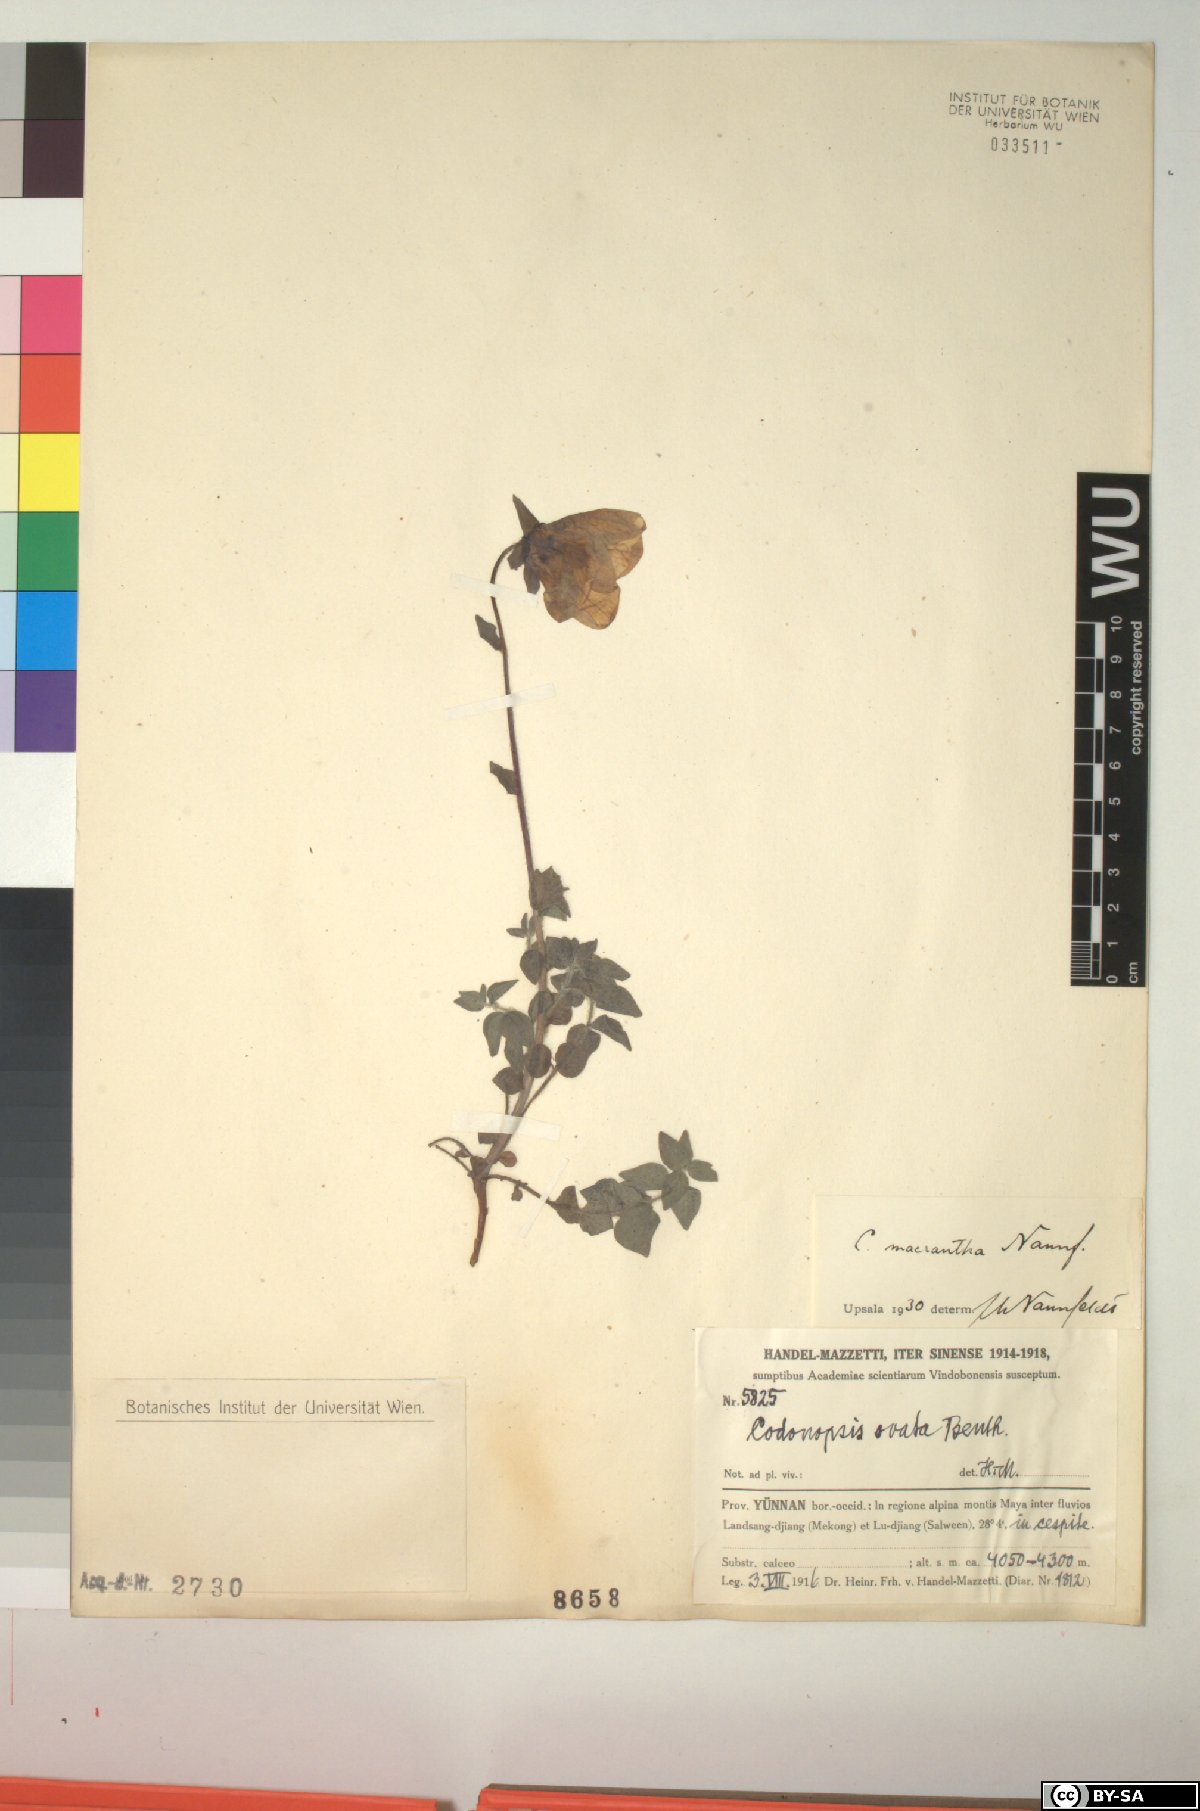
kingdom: Plantae
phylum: Tracheophyta
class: Magnoliopsida
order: Asterales
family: Campanulaceae
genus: Codonopsis
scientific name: Codonopsis foetens
